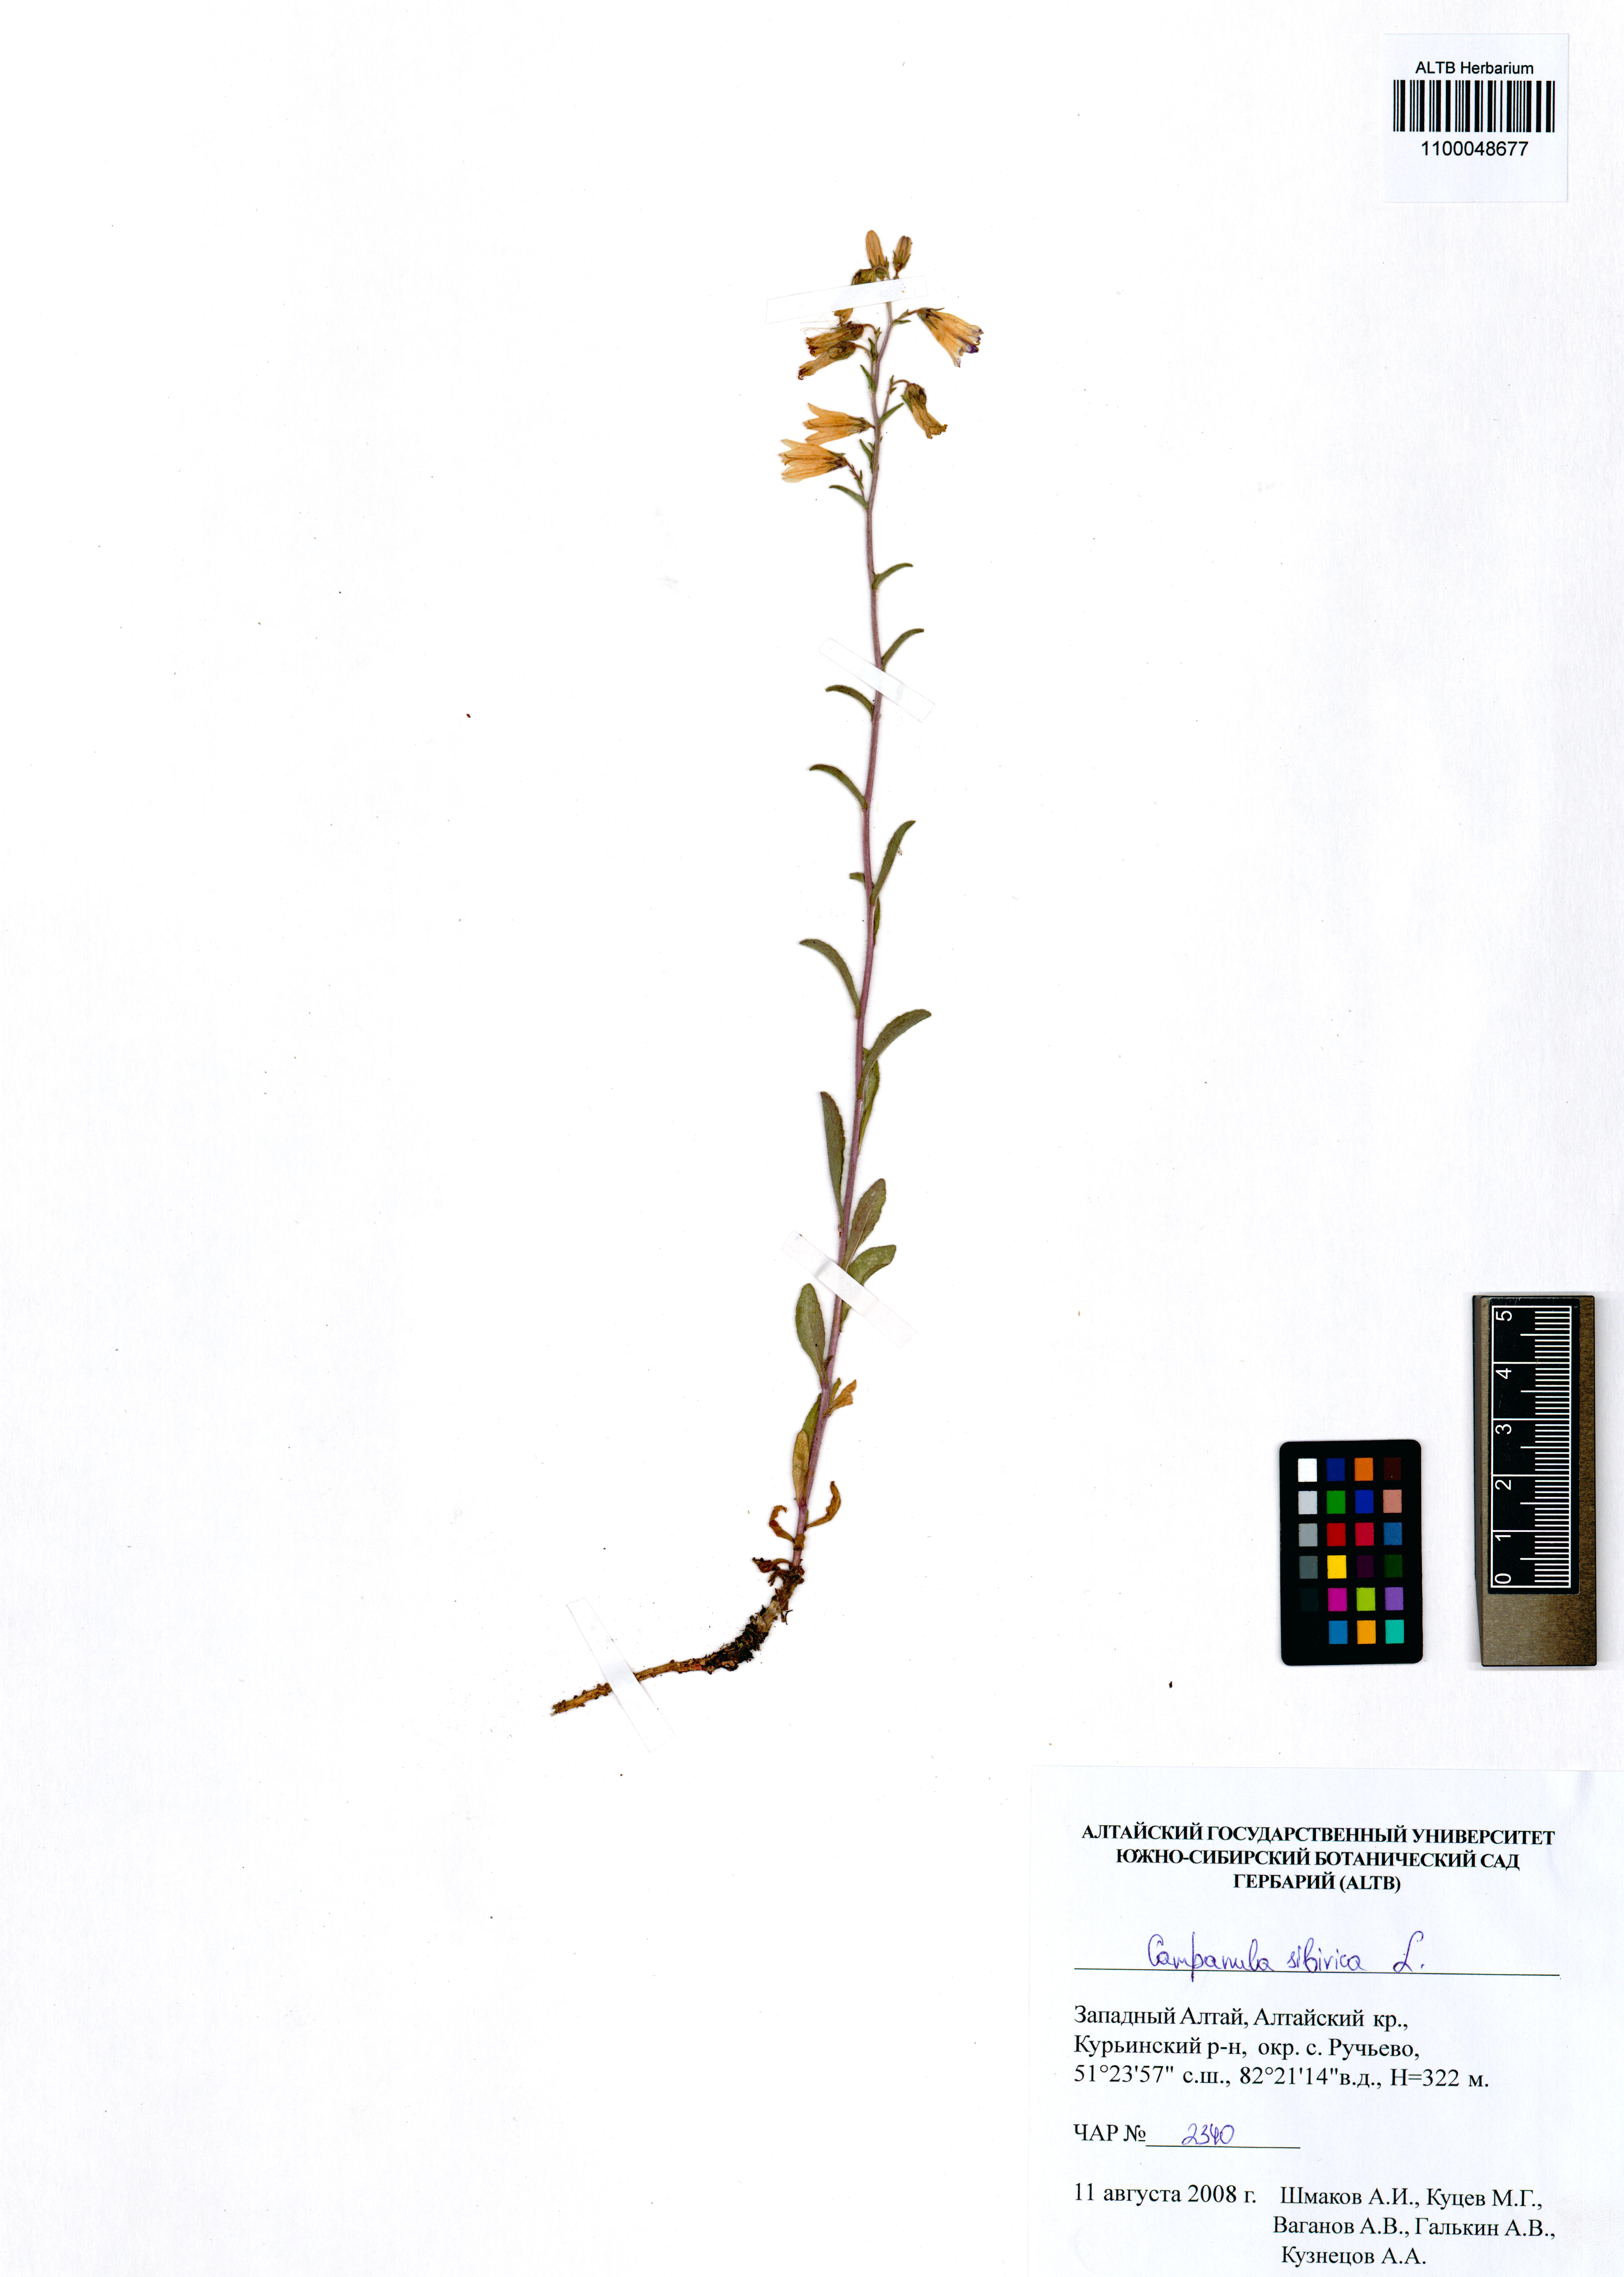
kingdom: Plantae
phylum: Tracheophyta
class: Magnoliopsida
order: Asterales
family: Campanulaceae
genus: Campanula
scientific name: Campanula sibirica
